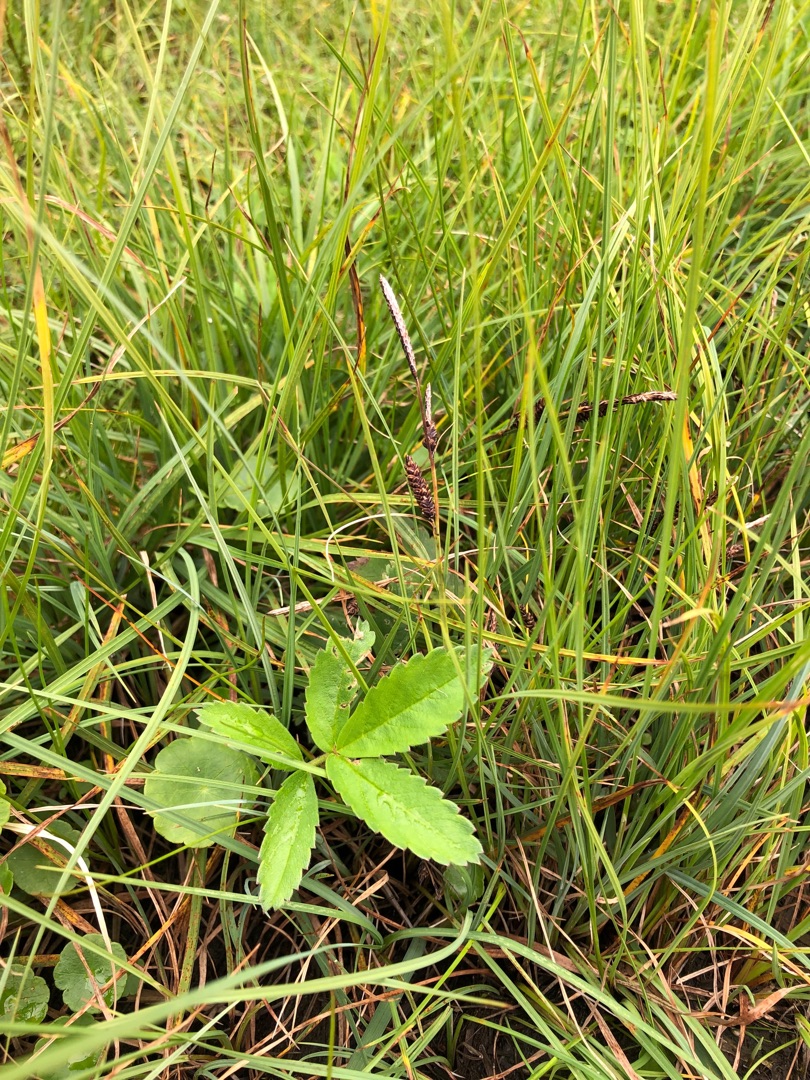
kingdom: Plantae
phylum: Tracheophyta
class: Magnoliopsida
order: Rosales
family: Rosaceae
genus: Comarum
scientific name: Comarum palustre
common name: Kragefod
